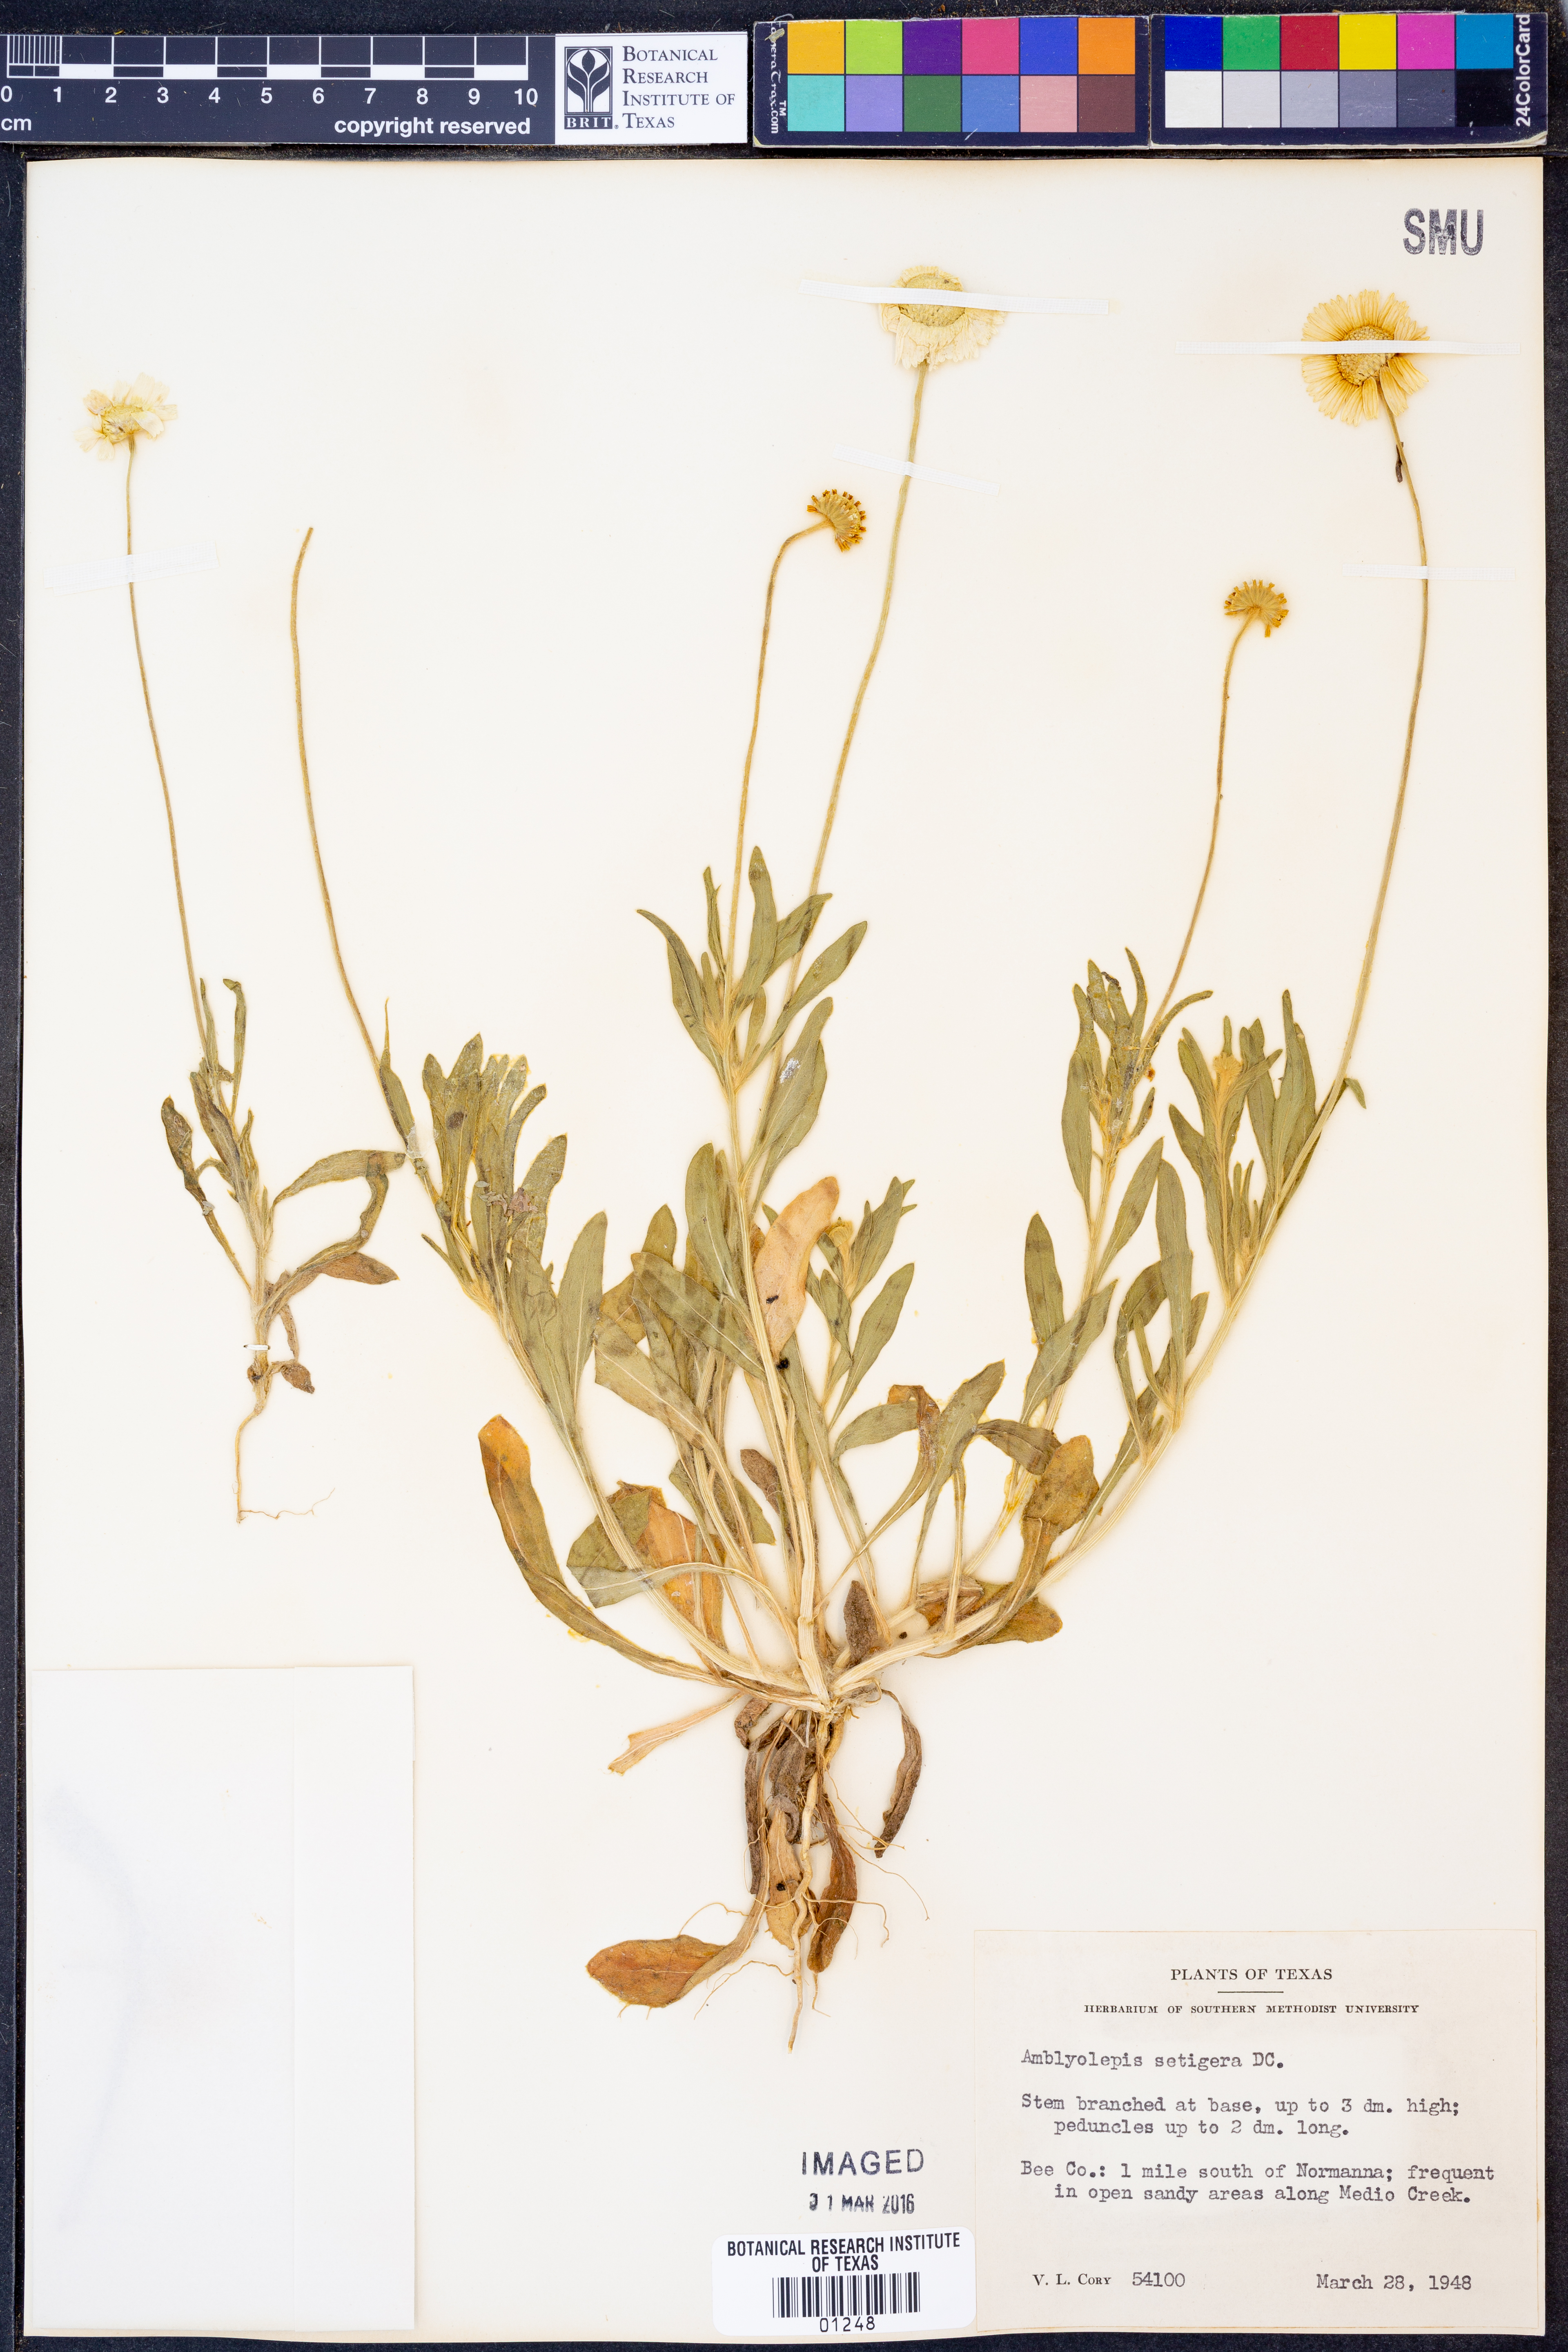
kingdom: Plantae
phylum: Tracheophyta
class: Magnoliopsida
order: Asterales
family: Asteraceae
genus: Amblyolepis
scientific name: Amblyolepis setigera
